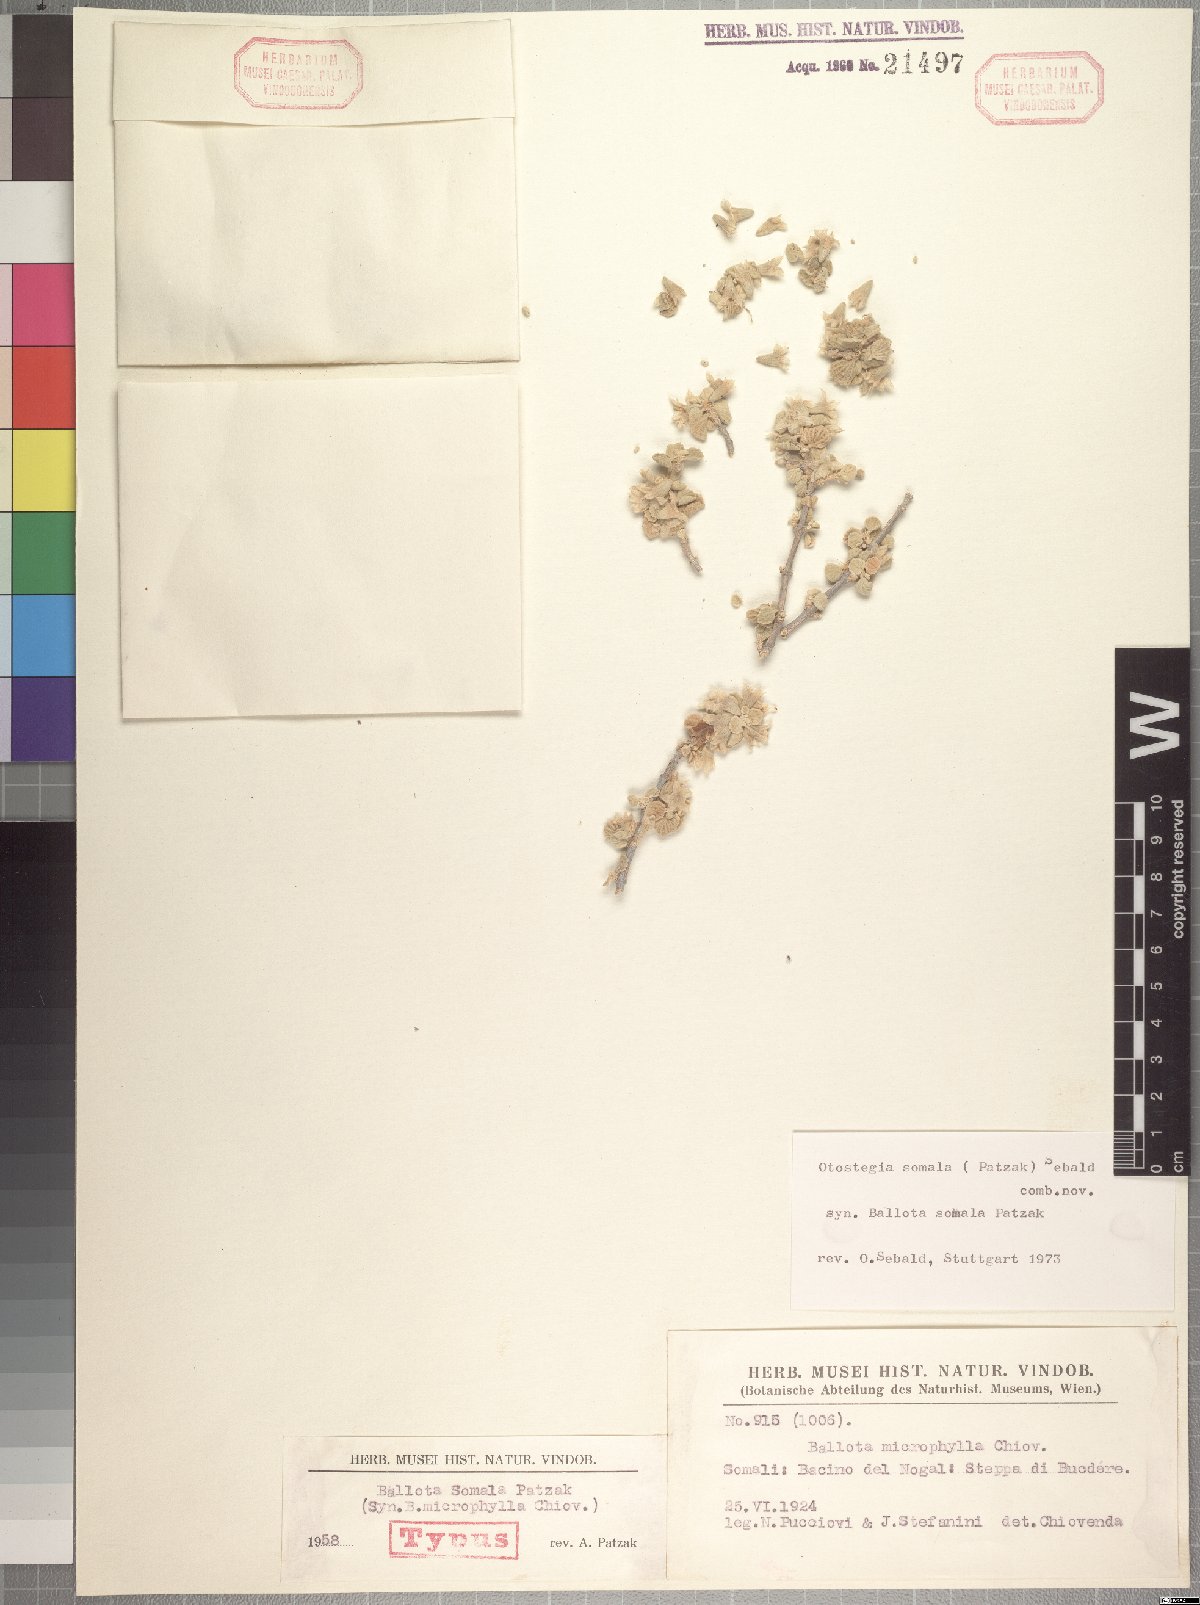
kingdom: Plantae
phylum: Tracheophyta
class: Magnoliopsida
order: Lamiales
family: Lamiaceae
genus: Isoleucas
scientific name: Isoleucas somala
